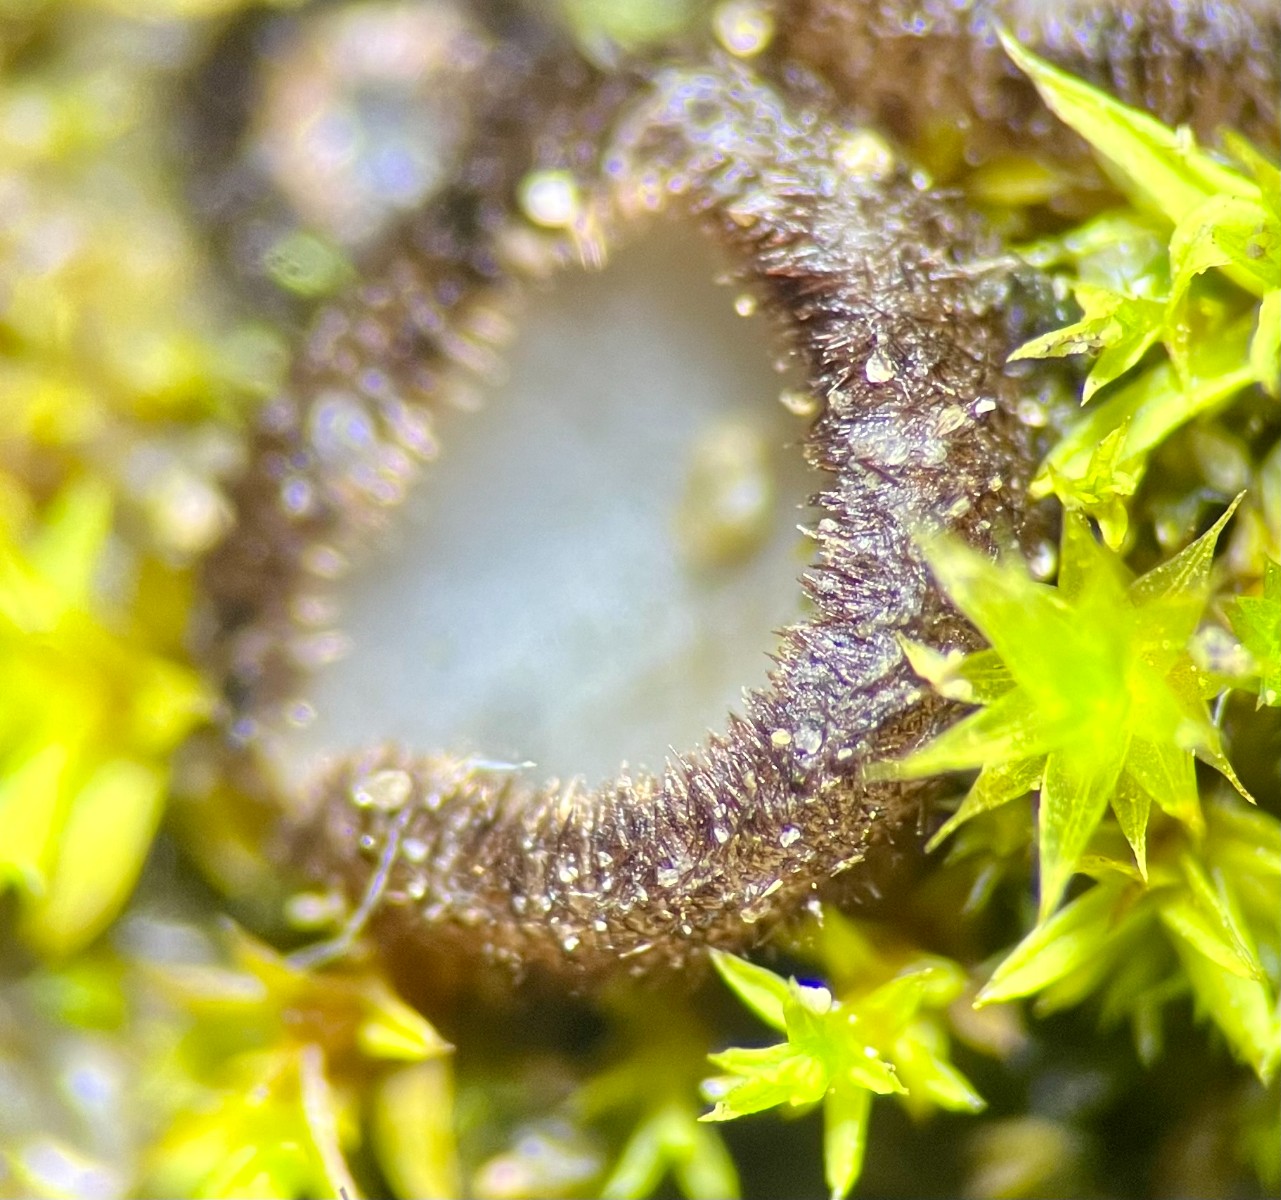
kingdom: Fungi
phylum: Ascomycota
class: Pezizomycetes
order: Pezizales
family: Pyronemataceae
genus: Trichophaea
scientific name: Trichophaea gregaria
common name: tensporet børstebæger
